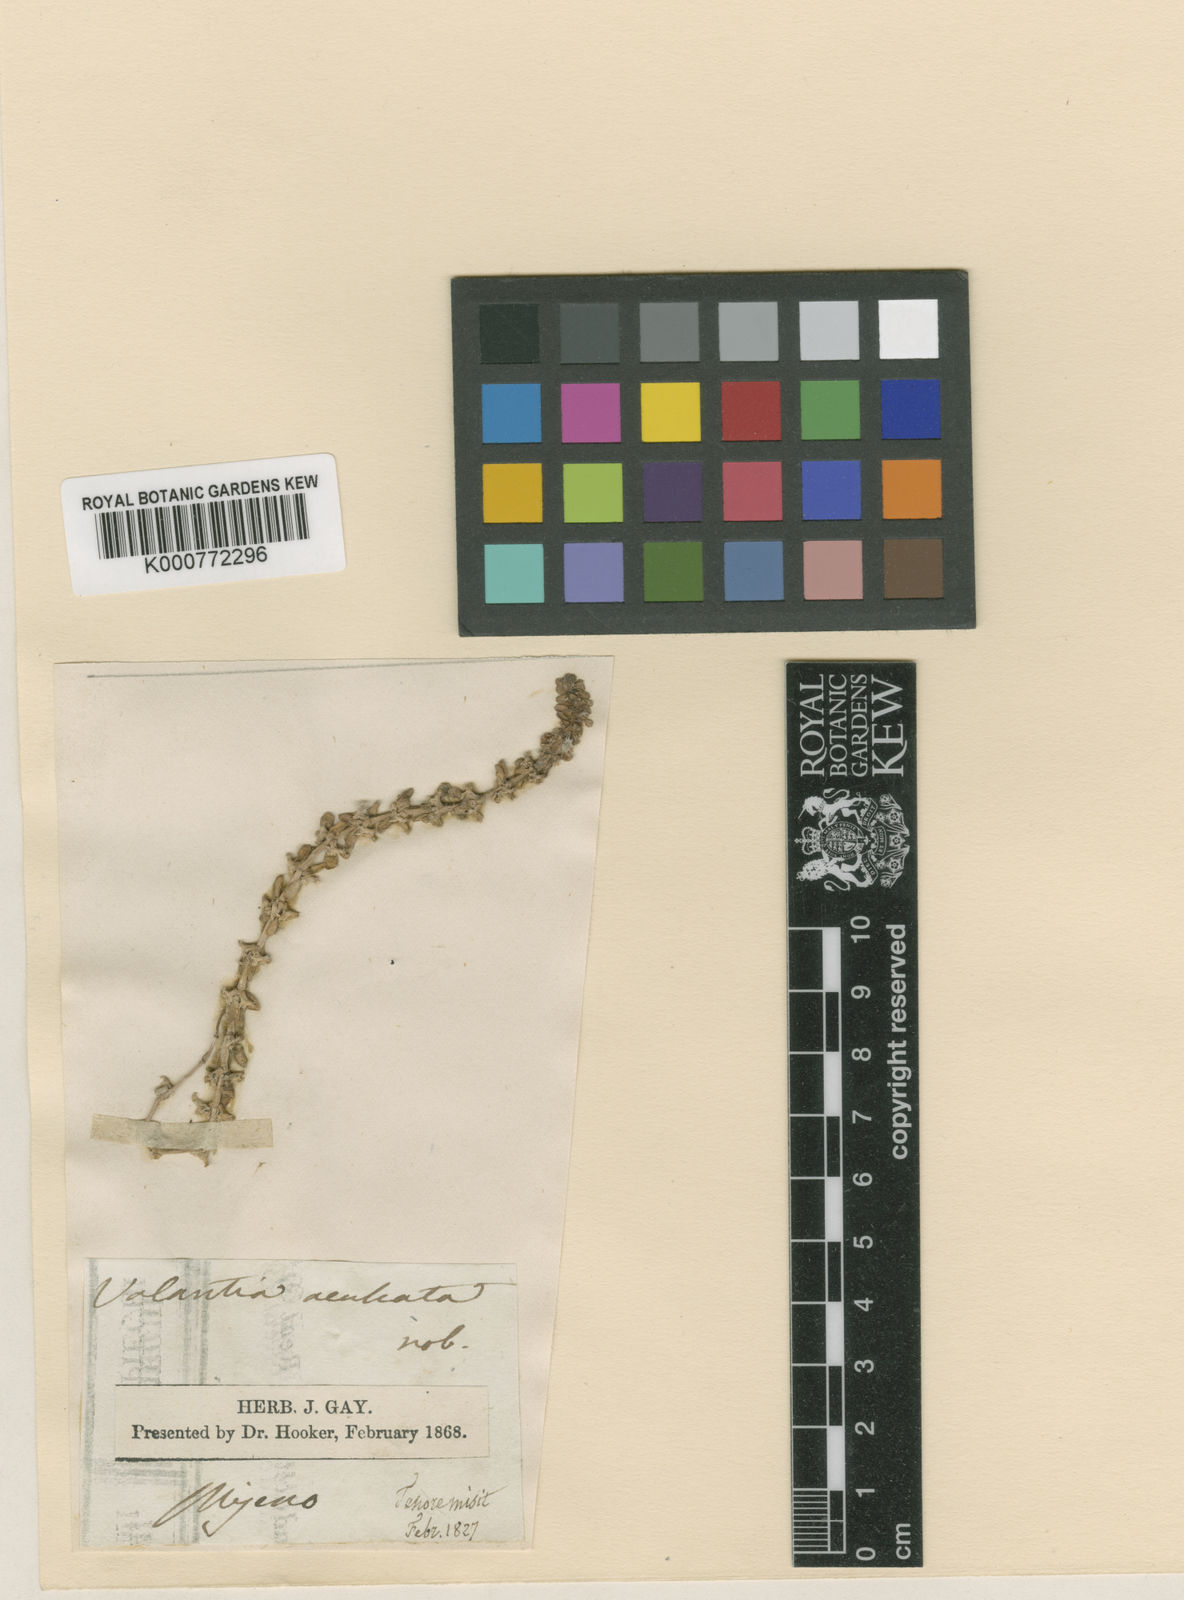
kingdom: Plantae
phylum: Tracheophyta
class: Magnoliopsida
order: Gentianales
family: Rubiaceae
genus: Valantia
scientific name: Valantia muralis
